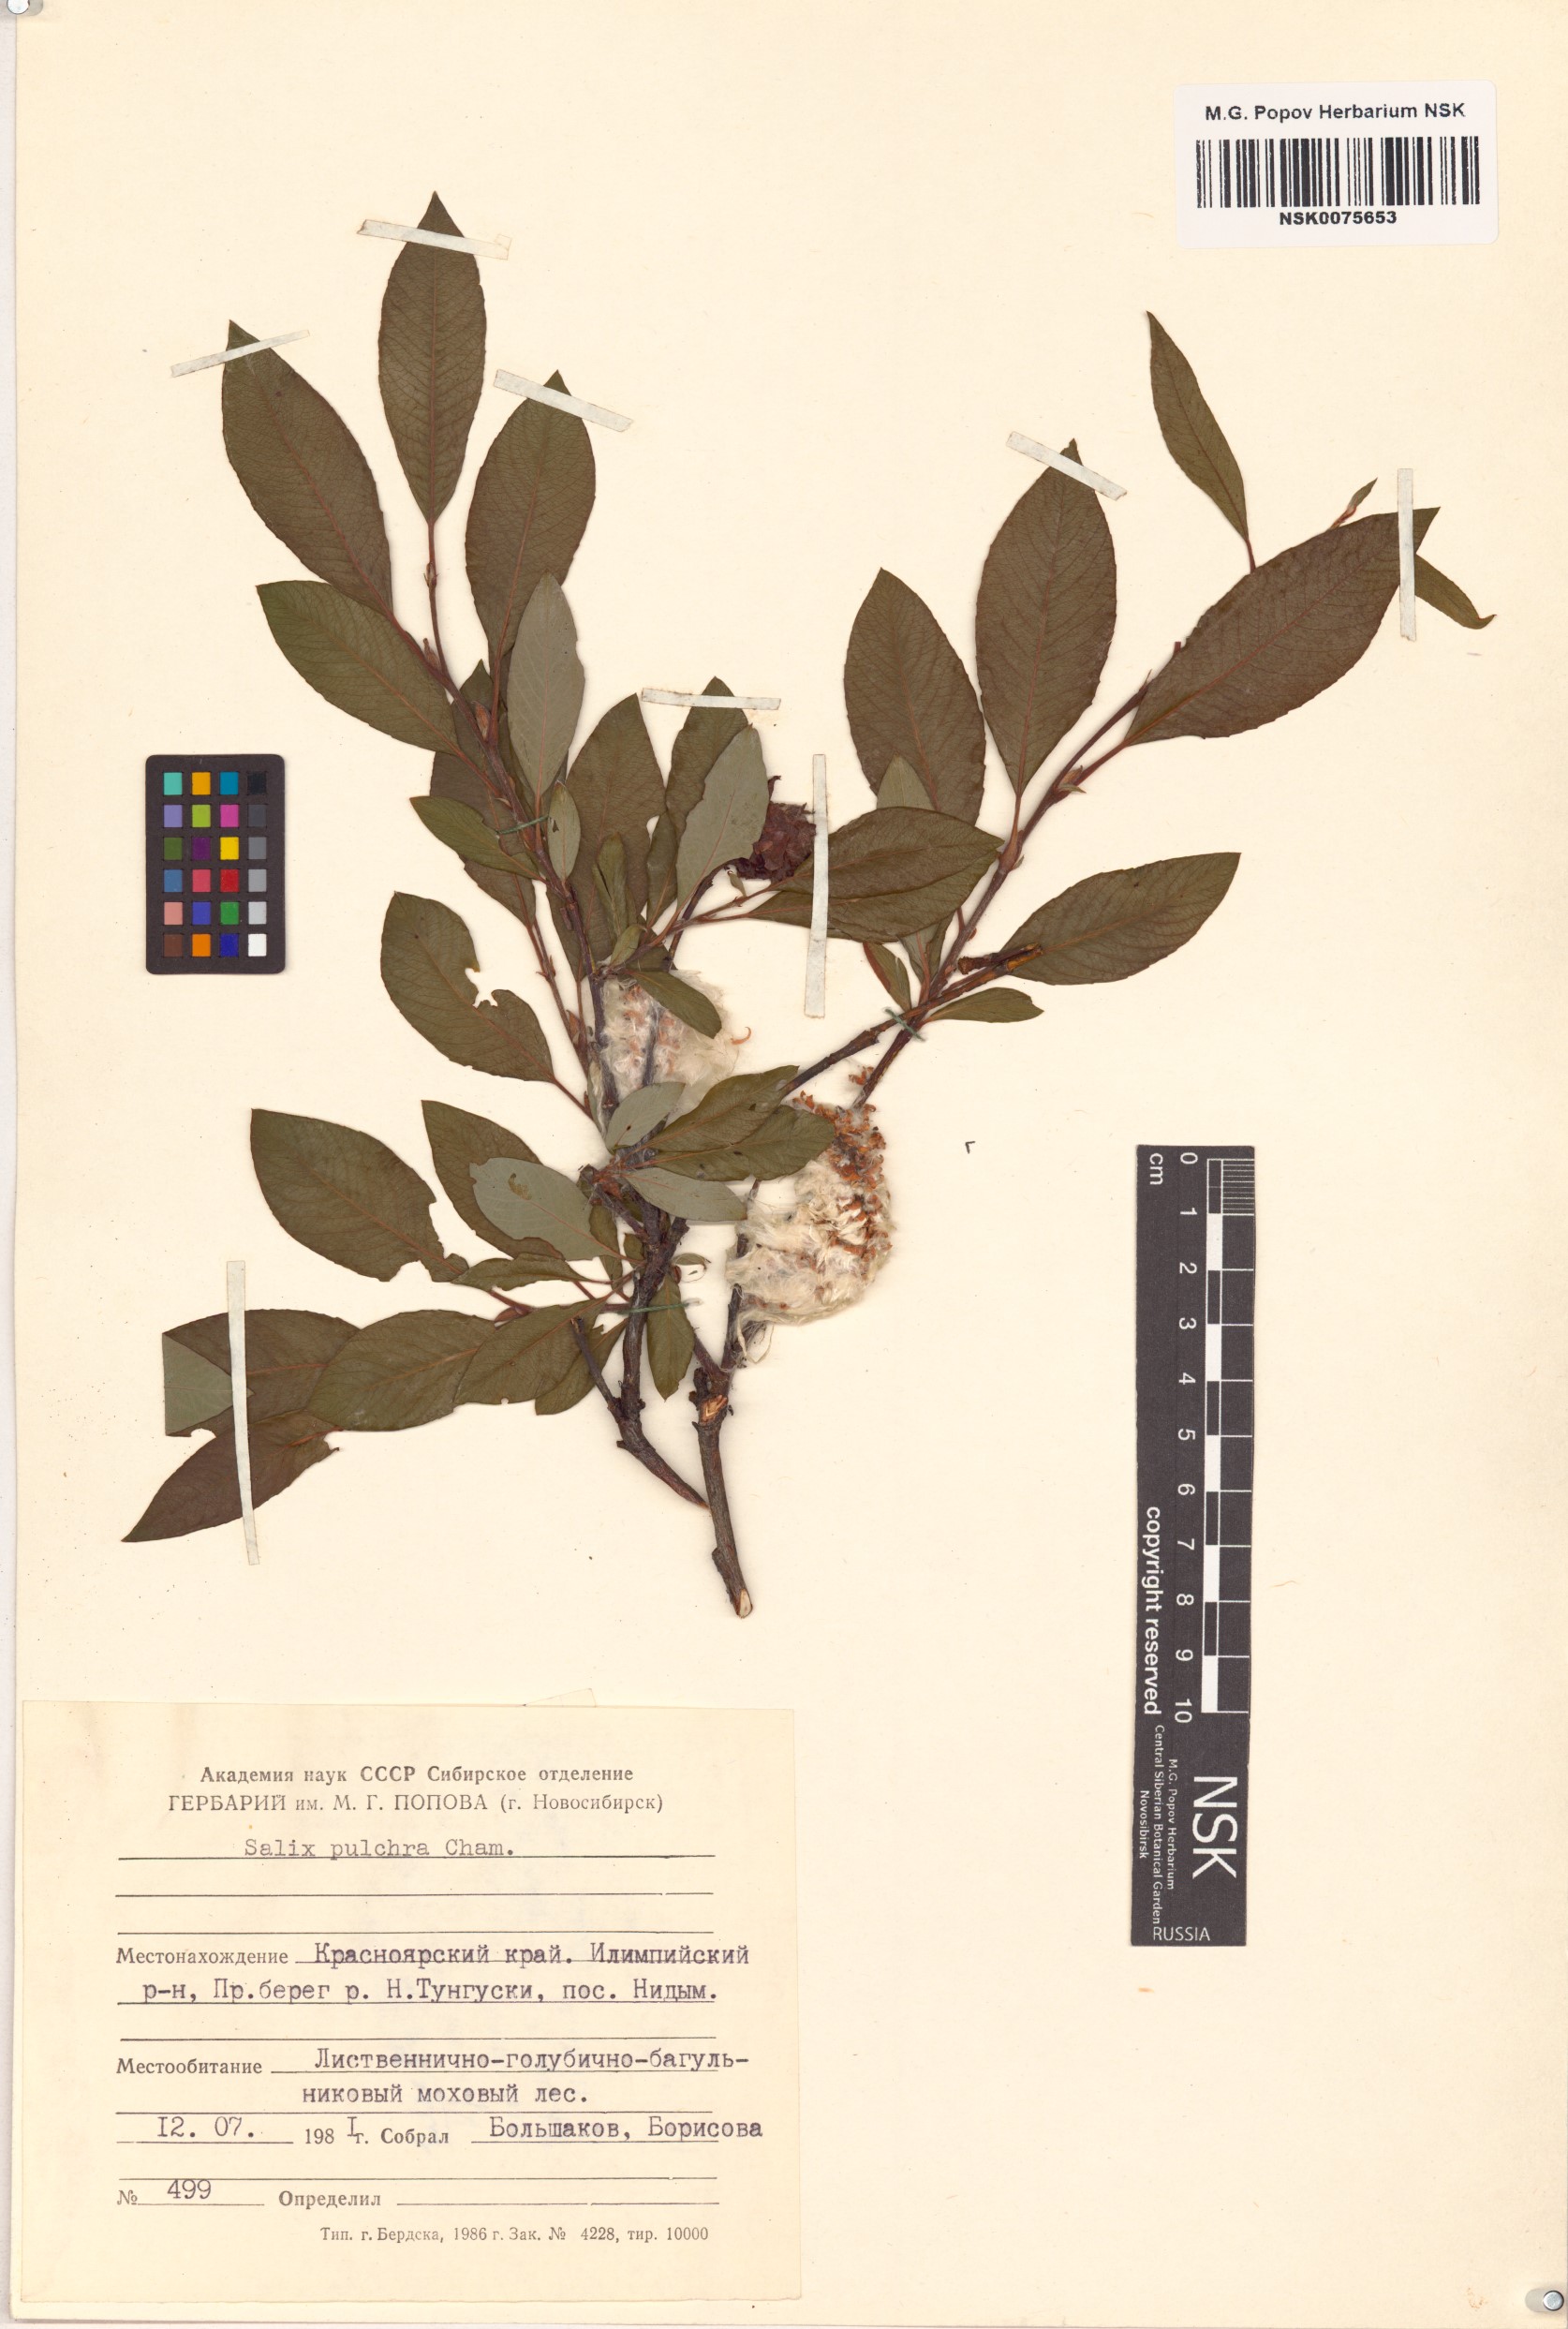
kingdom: Plantae
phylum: Tracheophyta
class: Magnoliopsida
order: Malpighiales
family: Salicaceae
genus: Salix
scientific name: Salix pulchra
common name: Diamond-leaved willow
